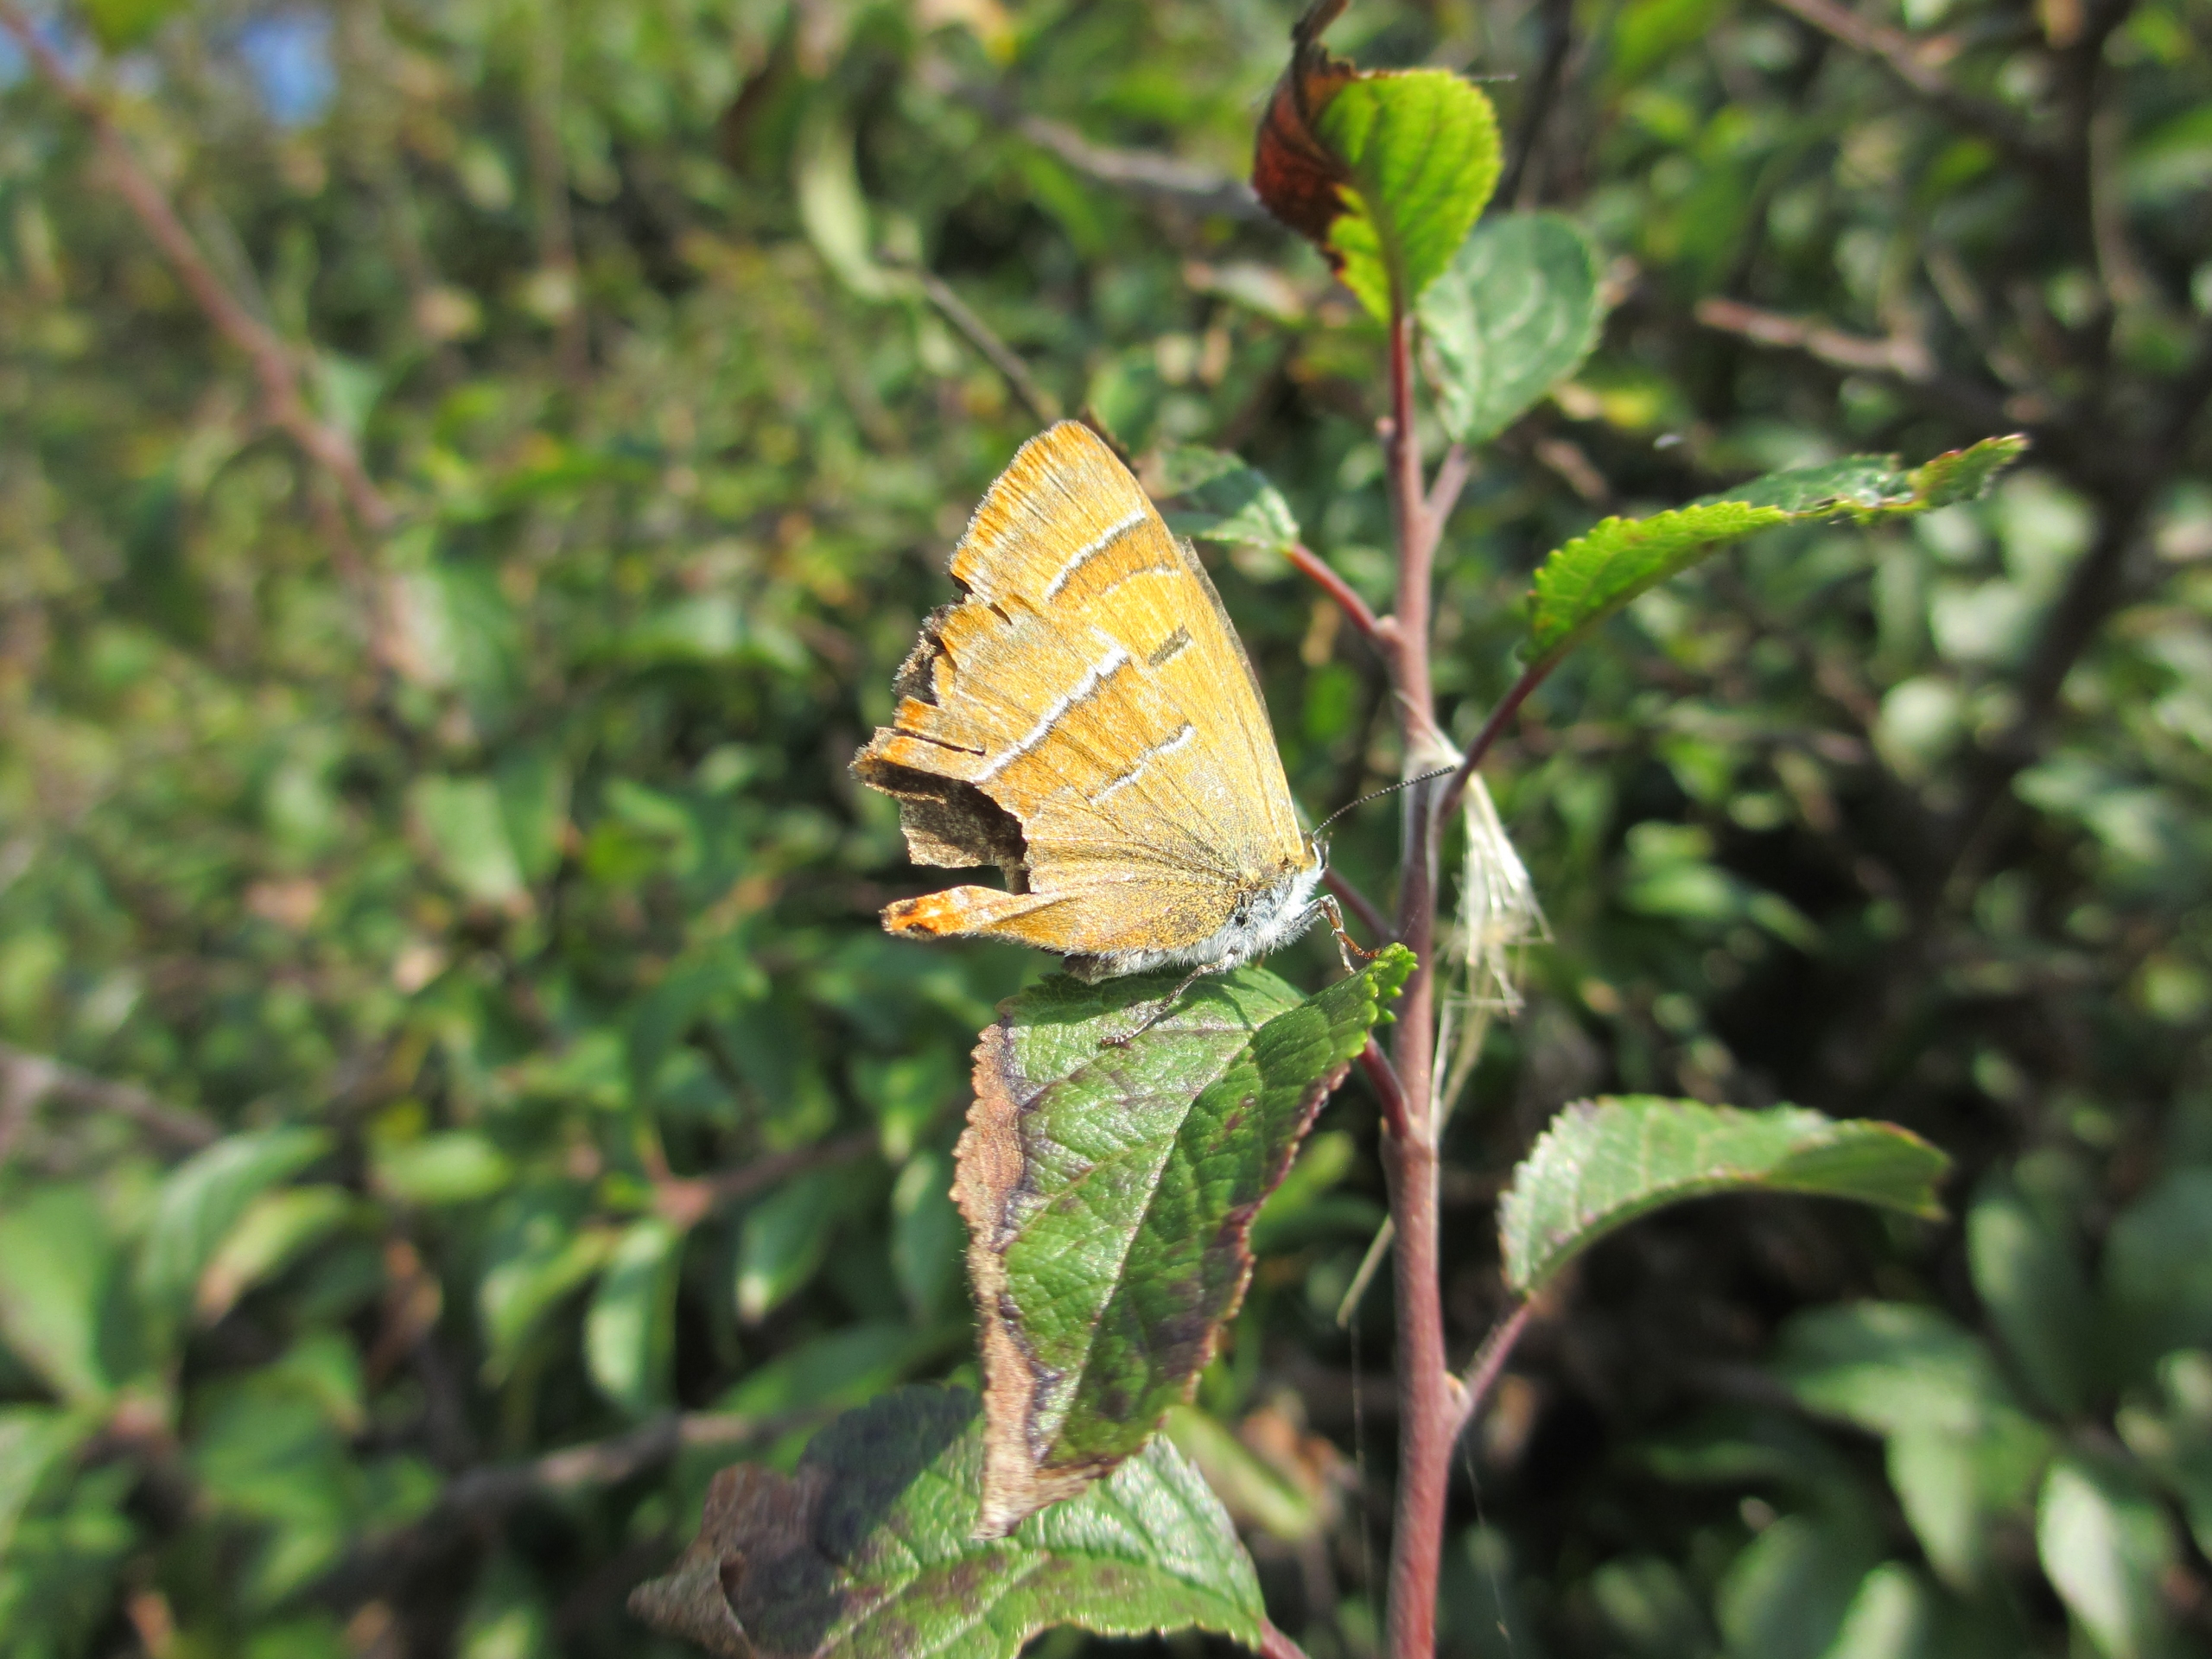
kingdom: Animalia
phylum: Arthropoda
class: Insecta
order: Lepidoptera
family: Lycaenidae
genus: Thecla
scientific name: Thecla betulae
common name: Guldhale
